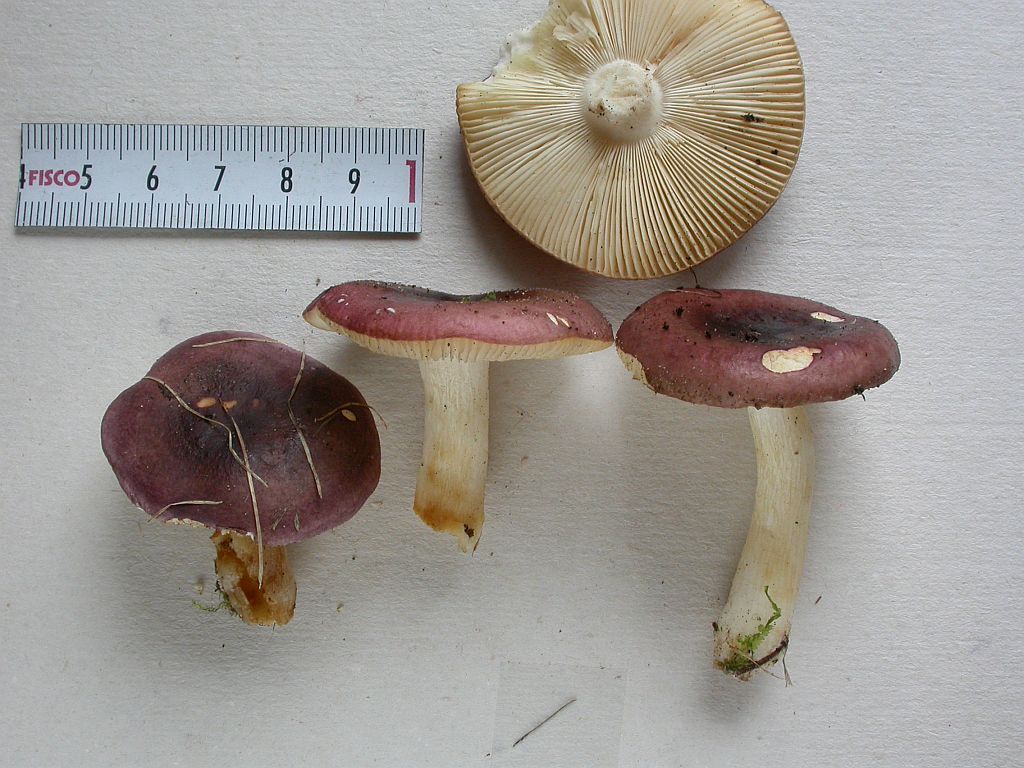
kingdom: Fungi
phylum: Basidiomycota
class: Agaricomycetes
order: Russulales
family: Russulaceae
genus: Russula
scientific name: Russula puellaris
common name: gulstokket skørhat
